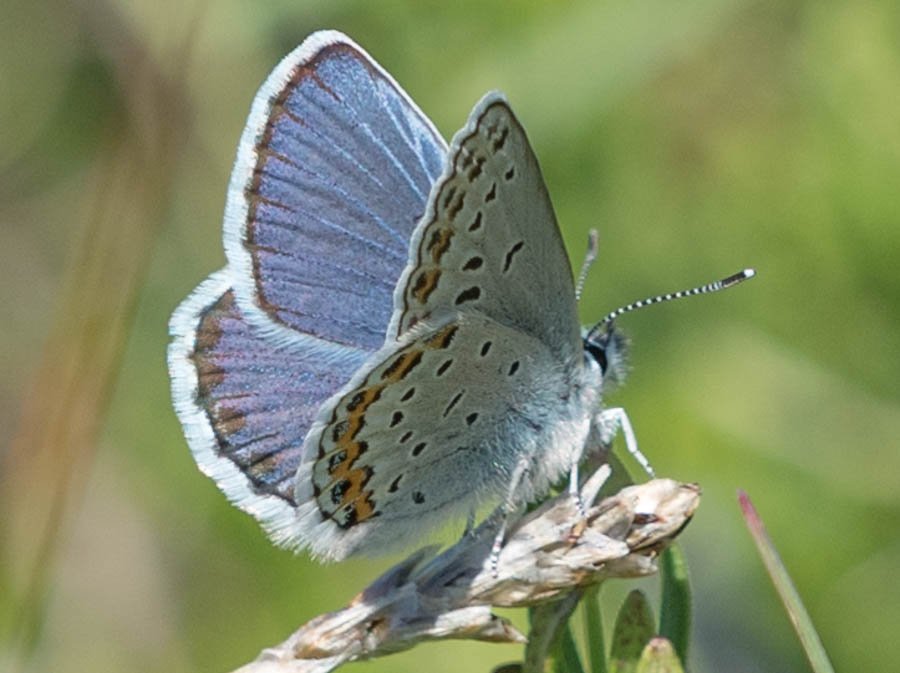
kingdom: Animalia
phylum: Arthropoda
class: Insecta
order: Lepidoptera
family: Lycaenidae
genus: Lycaeides
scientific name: Lycaeides idas
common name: Northern Blue
